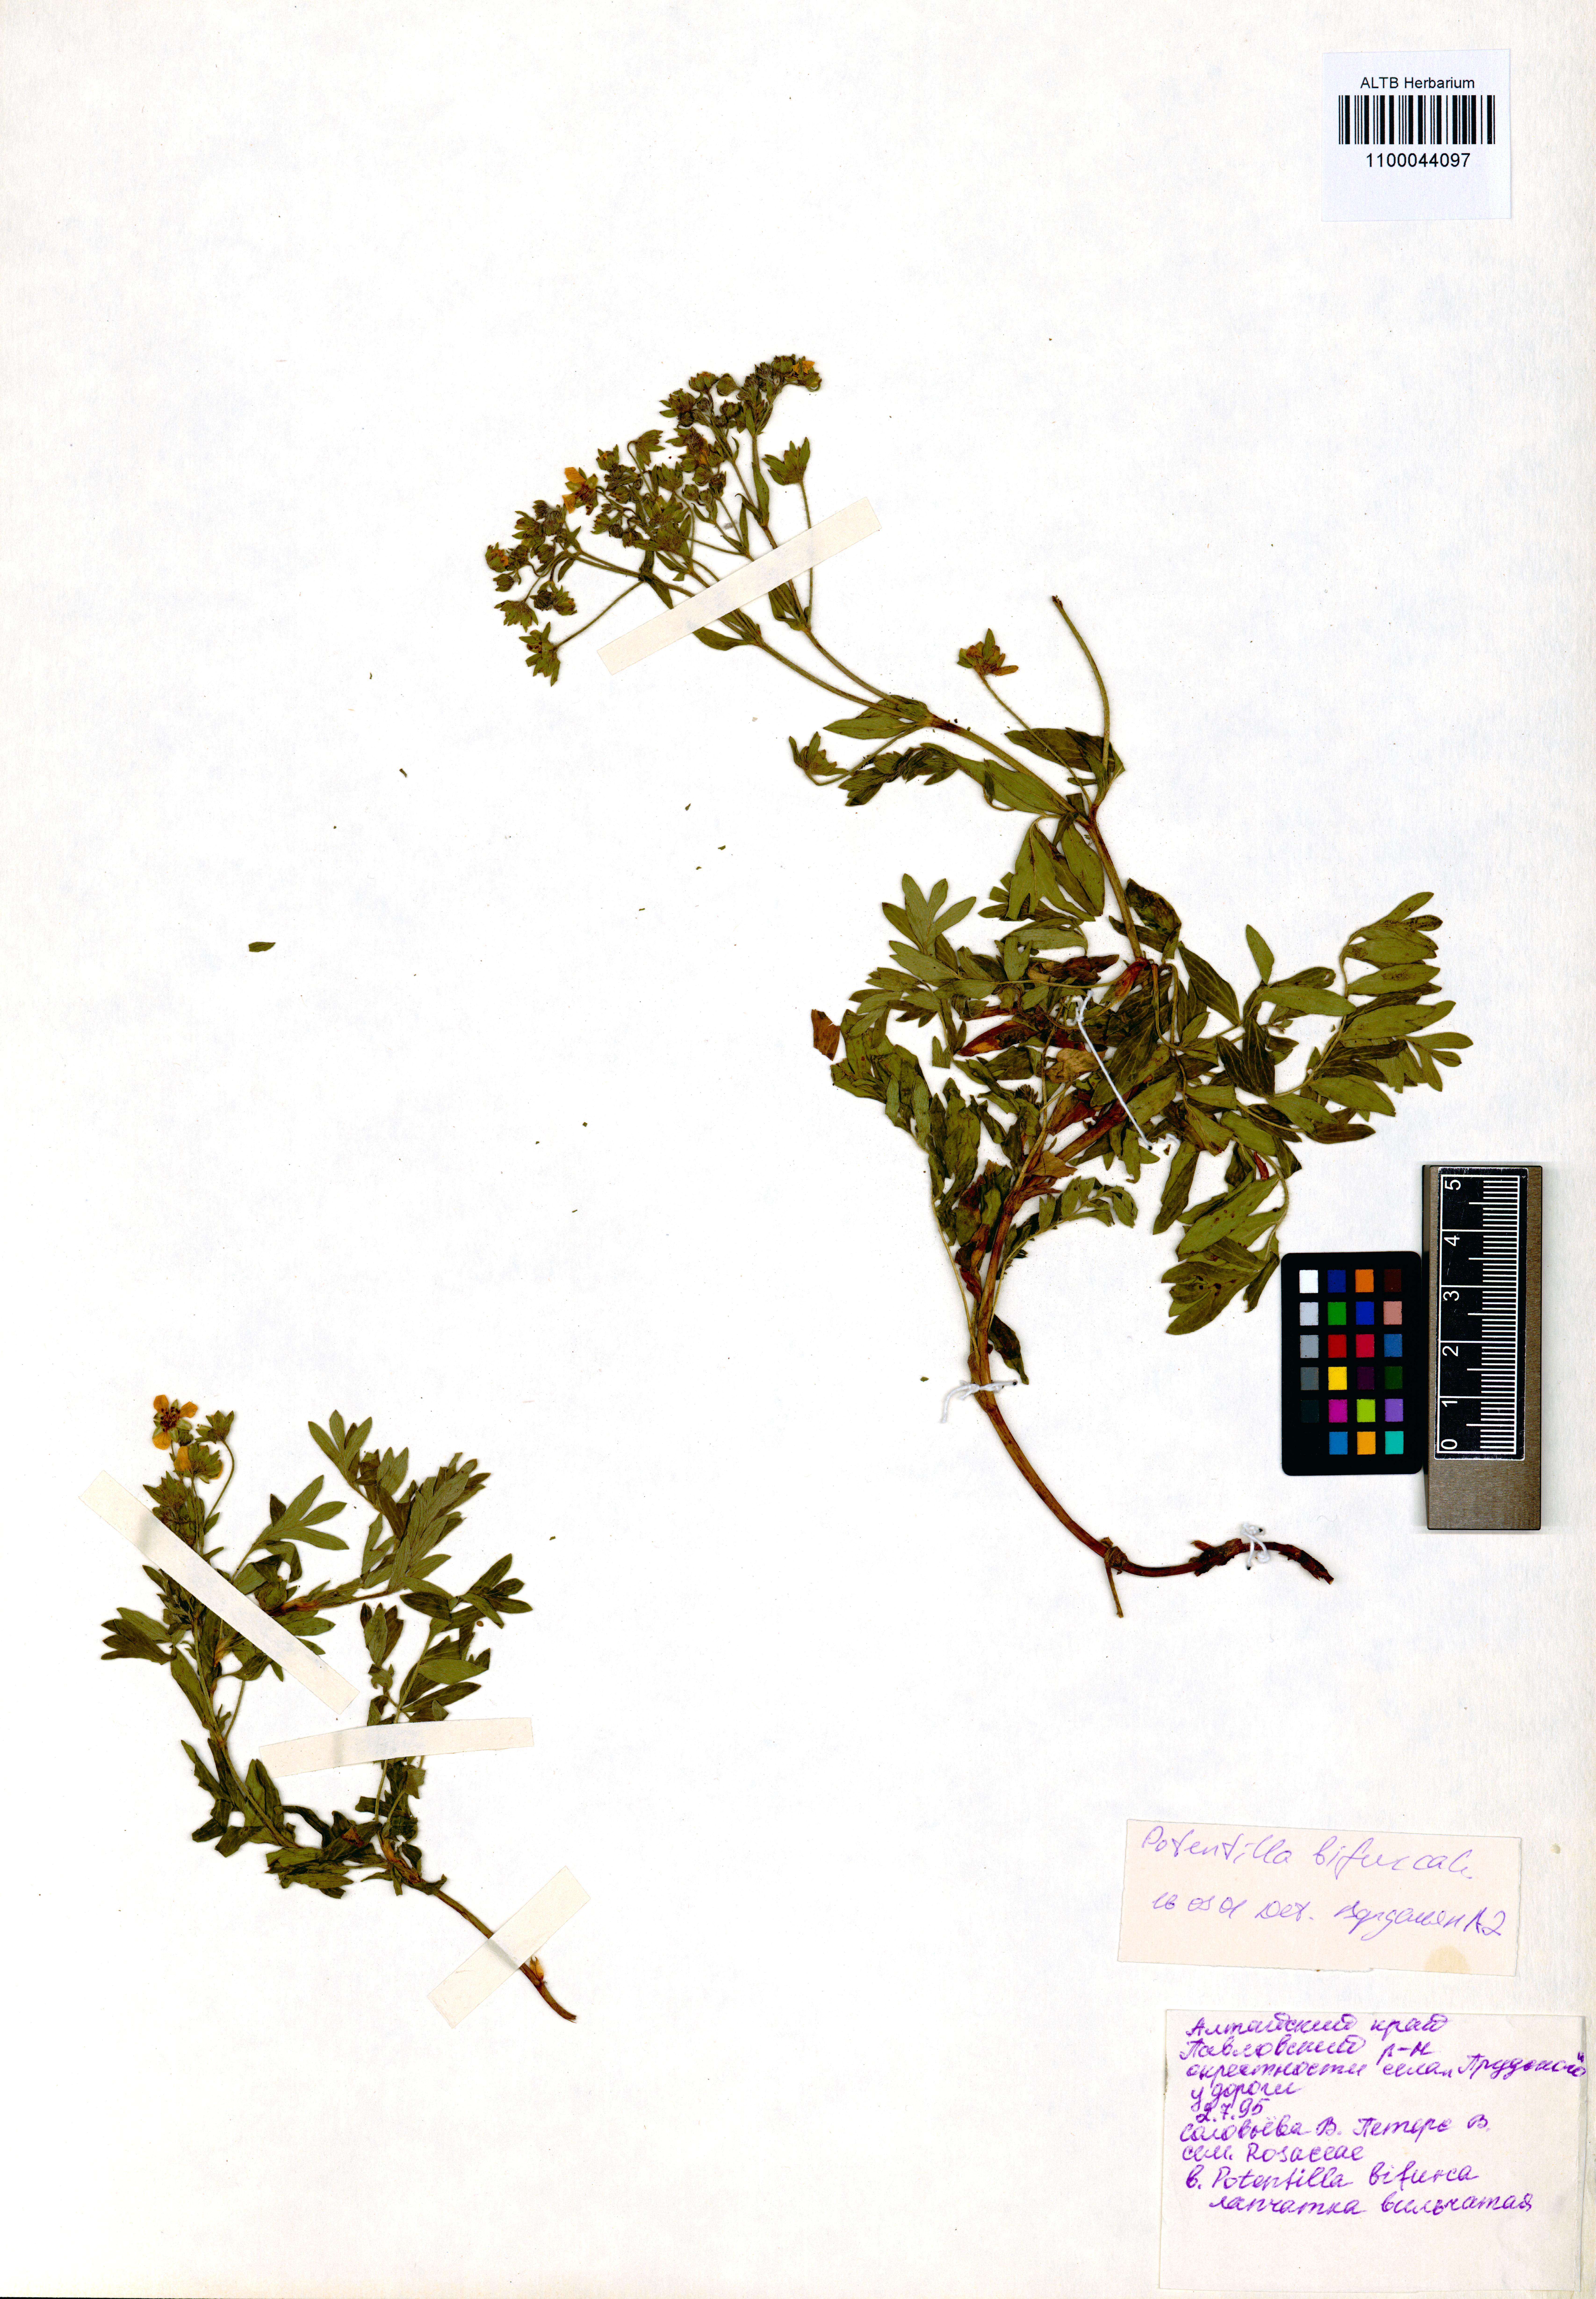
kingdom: Plantae
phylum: Tracheophyta
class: Magnoliopsida
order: Rosales
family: Rosaceae
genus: Sibbaldianthe
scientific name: Sibbaldianthe bifurca
